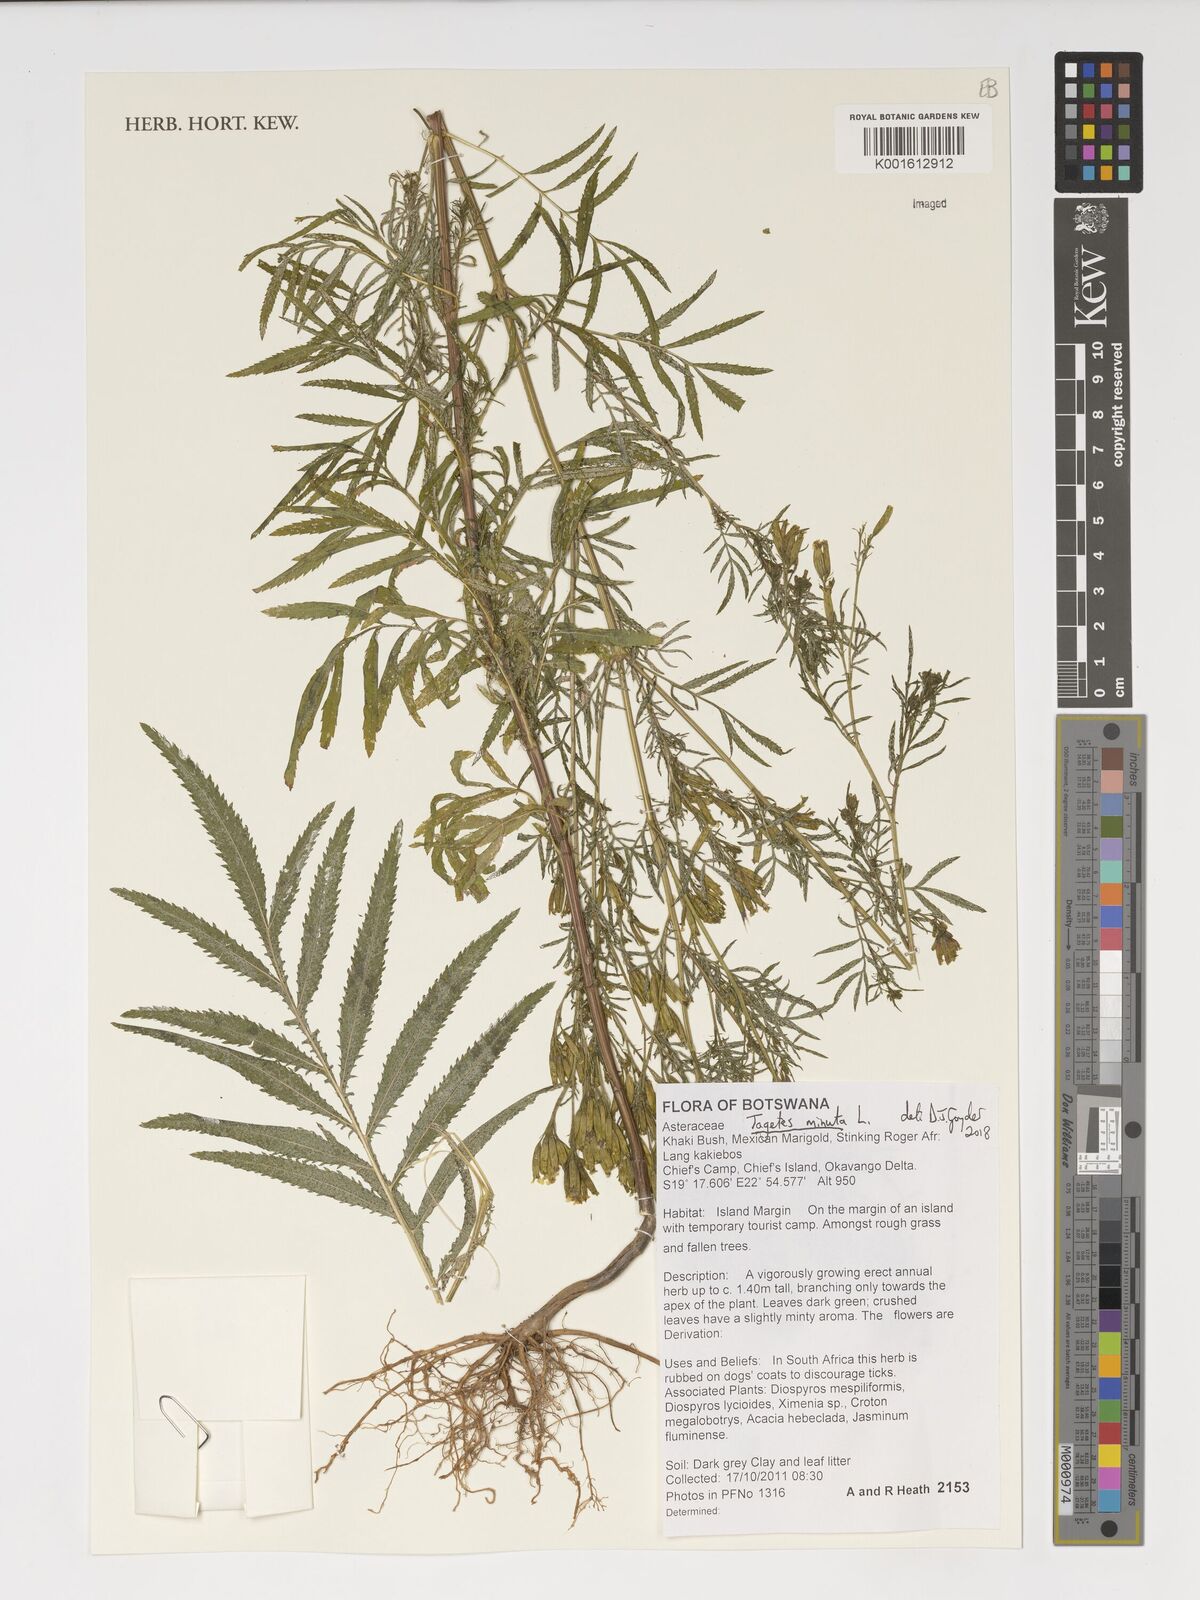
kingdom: Plantae
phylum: Tracheophyta
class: Magnoliopsida
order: Asterales
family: Asteraceae
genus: Tagetes
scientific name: Tagetes minuta
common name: Muster john henry
